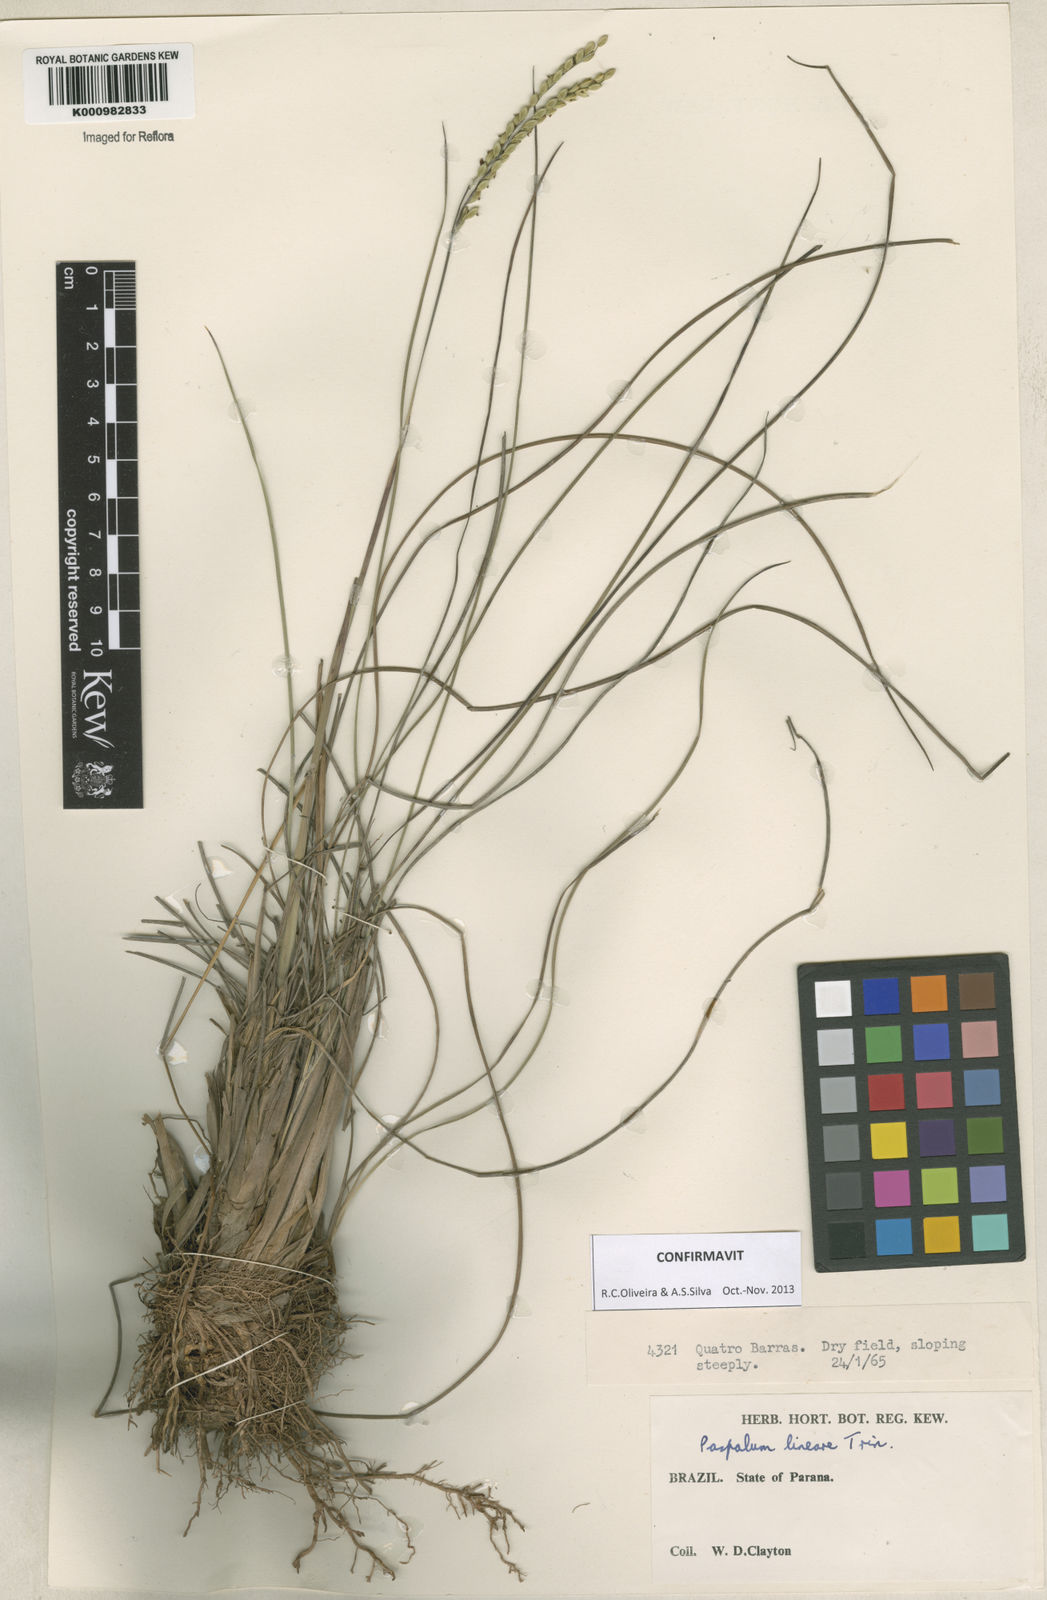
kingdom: Plantae
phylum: Tracheophyta
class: Liliopsida
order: Poales
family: Poaceae
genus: Paspalum
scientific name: Paspalum lineare
